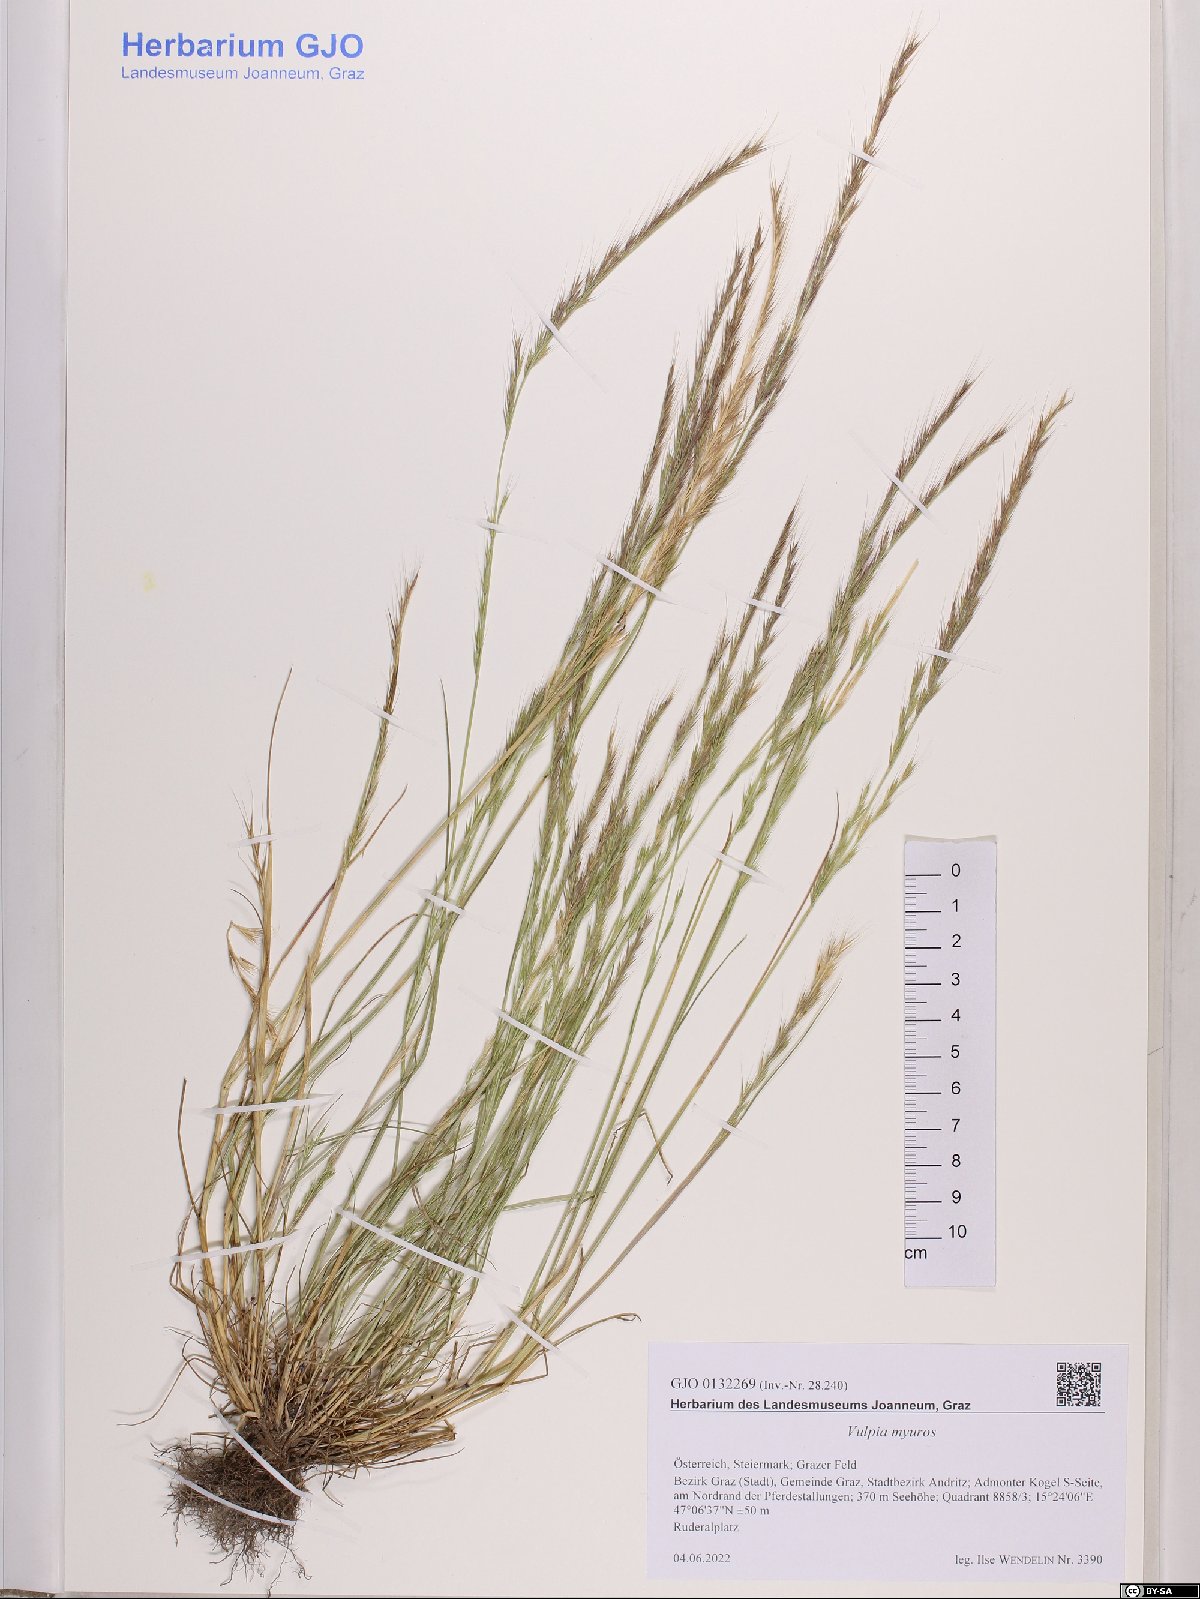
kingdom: Plantae
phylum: Tracheophyta
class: Liliopsida
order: Poales
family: Poaceae
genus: Festuca
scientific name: Festuca myuros
